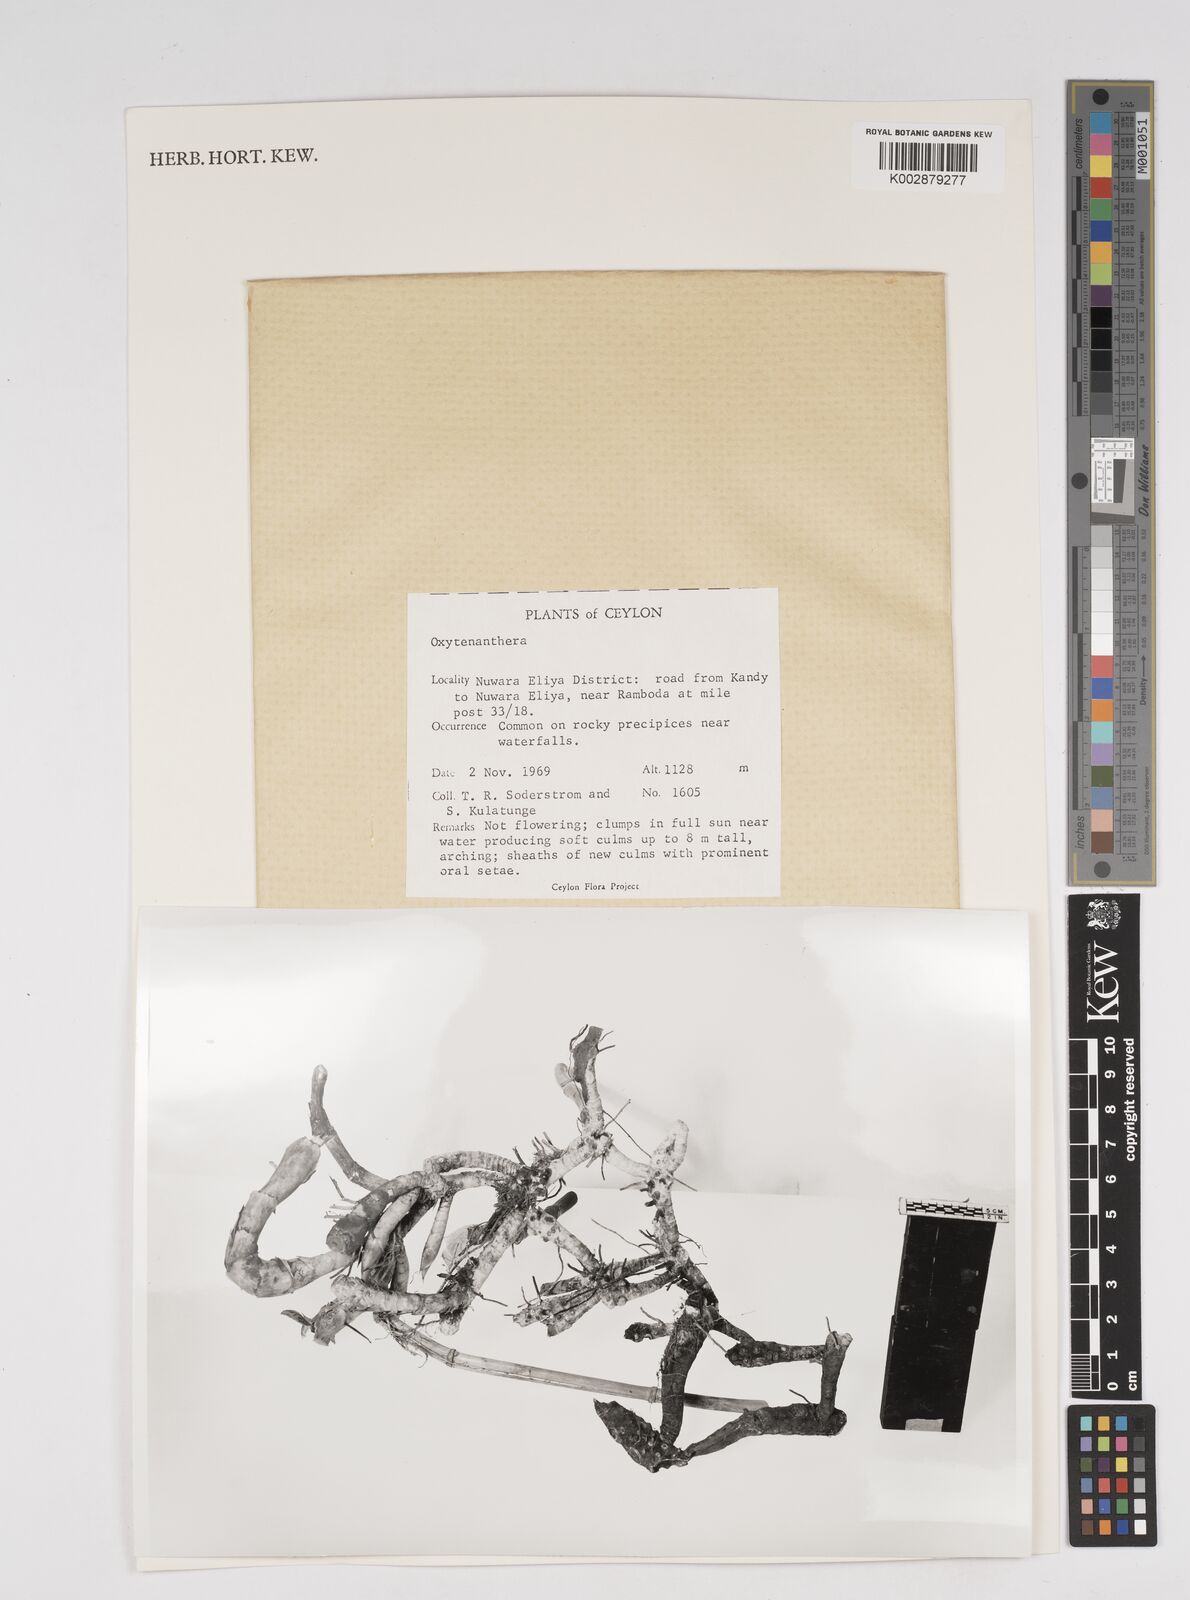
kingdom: Plantae
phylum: Tracheophyta
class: Liliopsida
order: Poales
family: Poaceae
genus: Dendrocalamus
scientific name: Dendrocalamus
